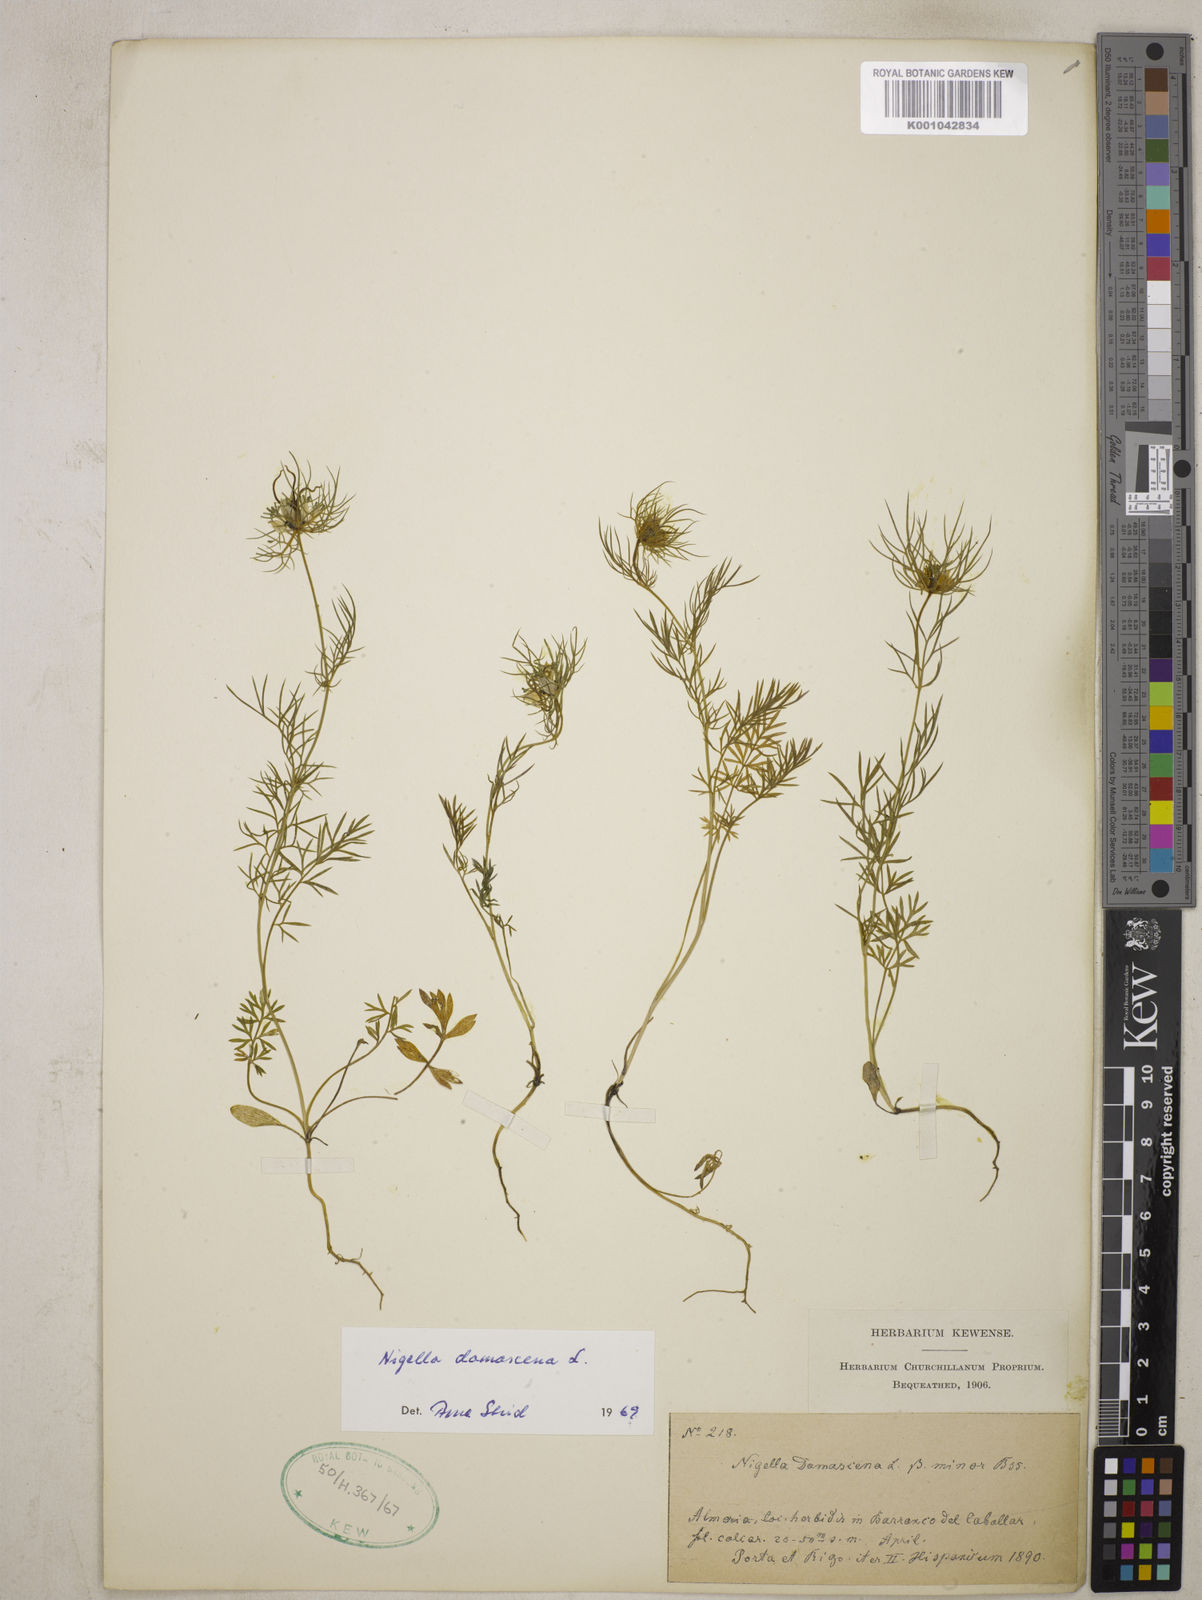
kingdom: Plantae
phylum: Tracheophyta
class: Magnoliopsida
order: Ranunculales
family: Ranunculaceae
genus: Nigella
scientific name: Nigella damascena
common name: Love-in-a-mist
